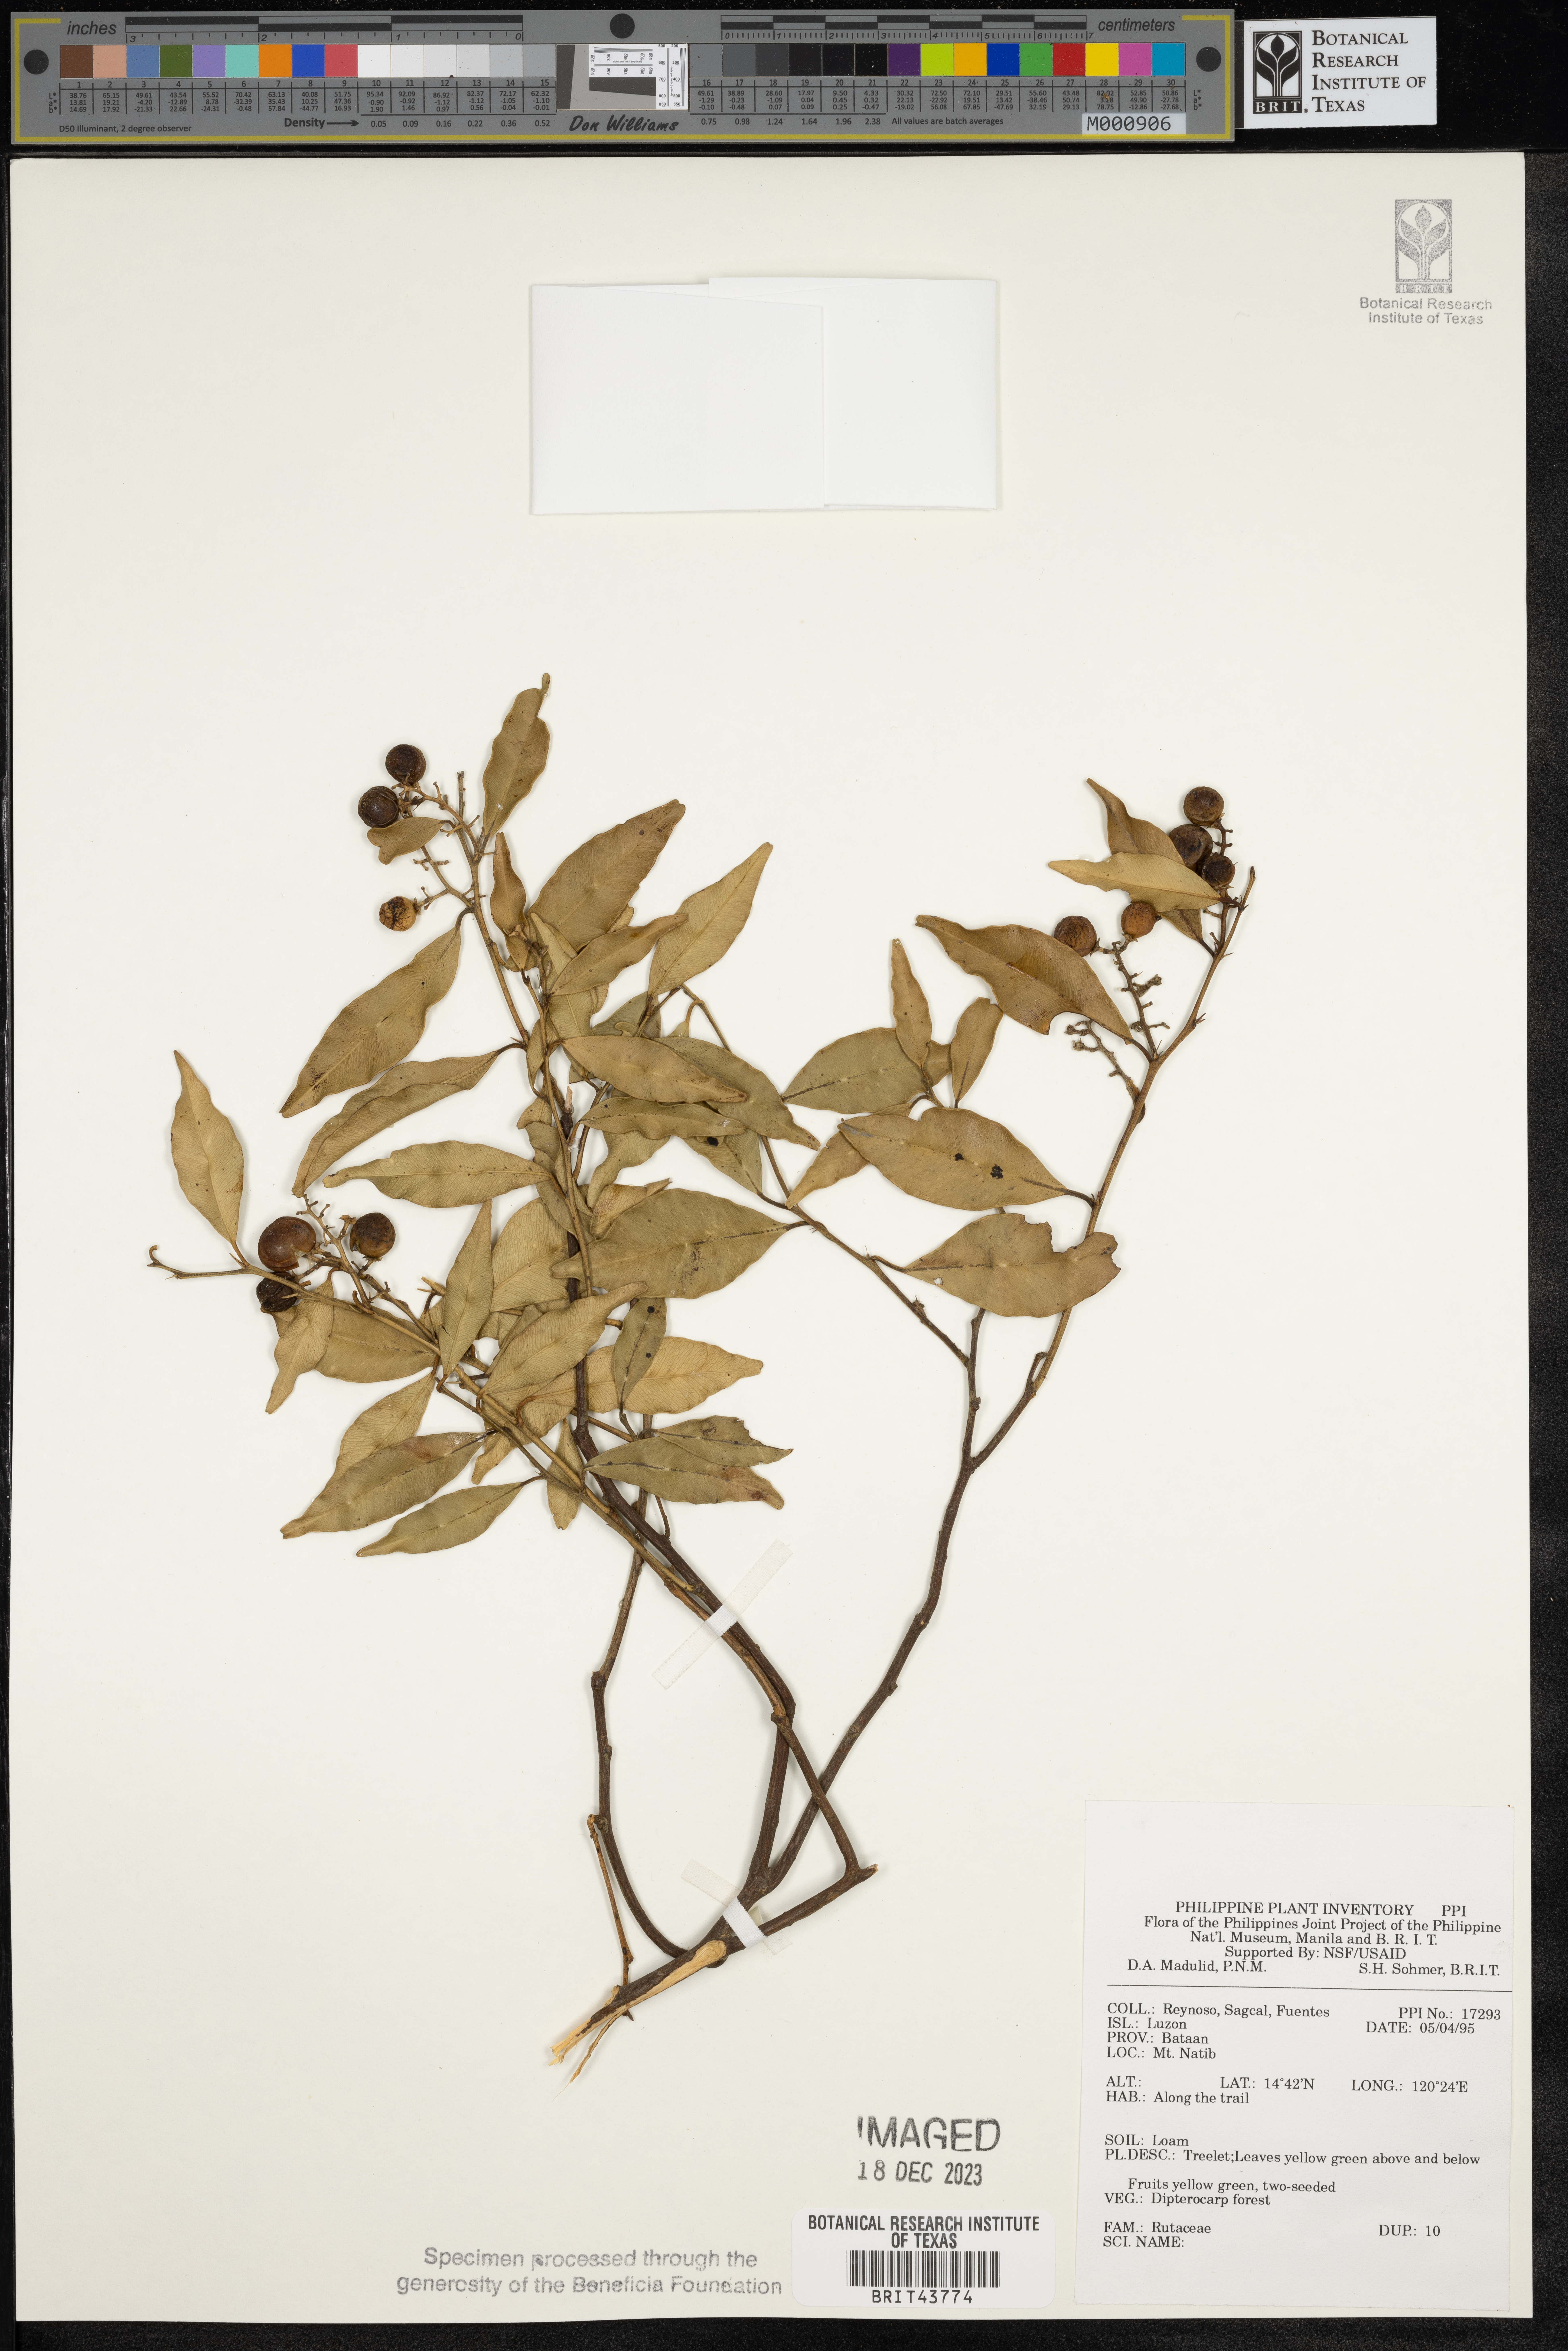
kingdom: Plantae
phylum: Tracheophyta
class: Magnoliopsida
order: Sapindales
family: Rutaceae
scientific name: Rutaceae
